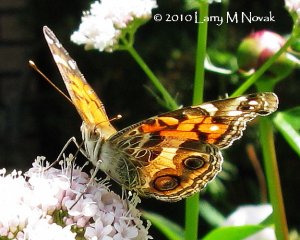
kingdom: Animalia
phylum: Arthropoda
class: Insecta
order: Lepidoptera
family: Nymphalidae
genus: Vanessa
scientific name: Vanessa virginiensis
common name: American Lady
